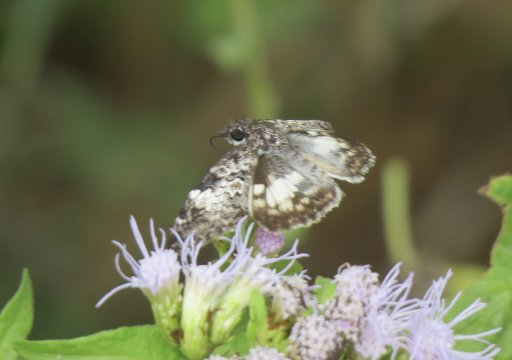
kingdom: Animalia
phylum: Arthropoda
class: Insecta
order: Lepidoptera
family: Hesperiidae
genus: Chiomara
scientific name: Chiomara asychis
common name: White-patched Skipper
